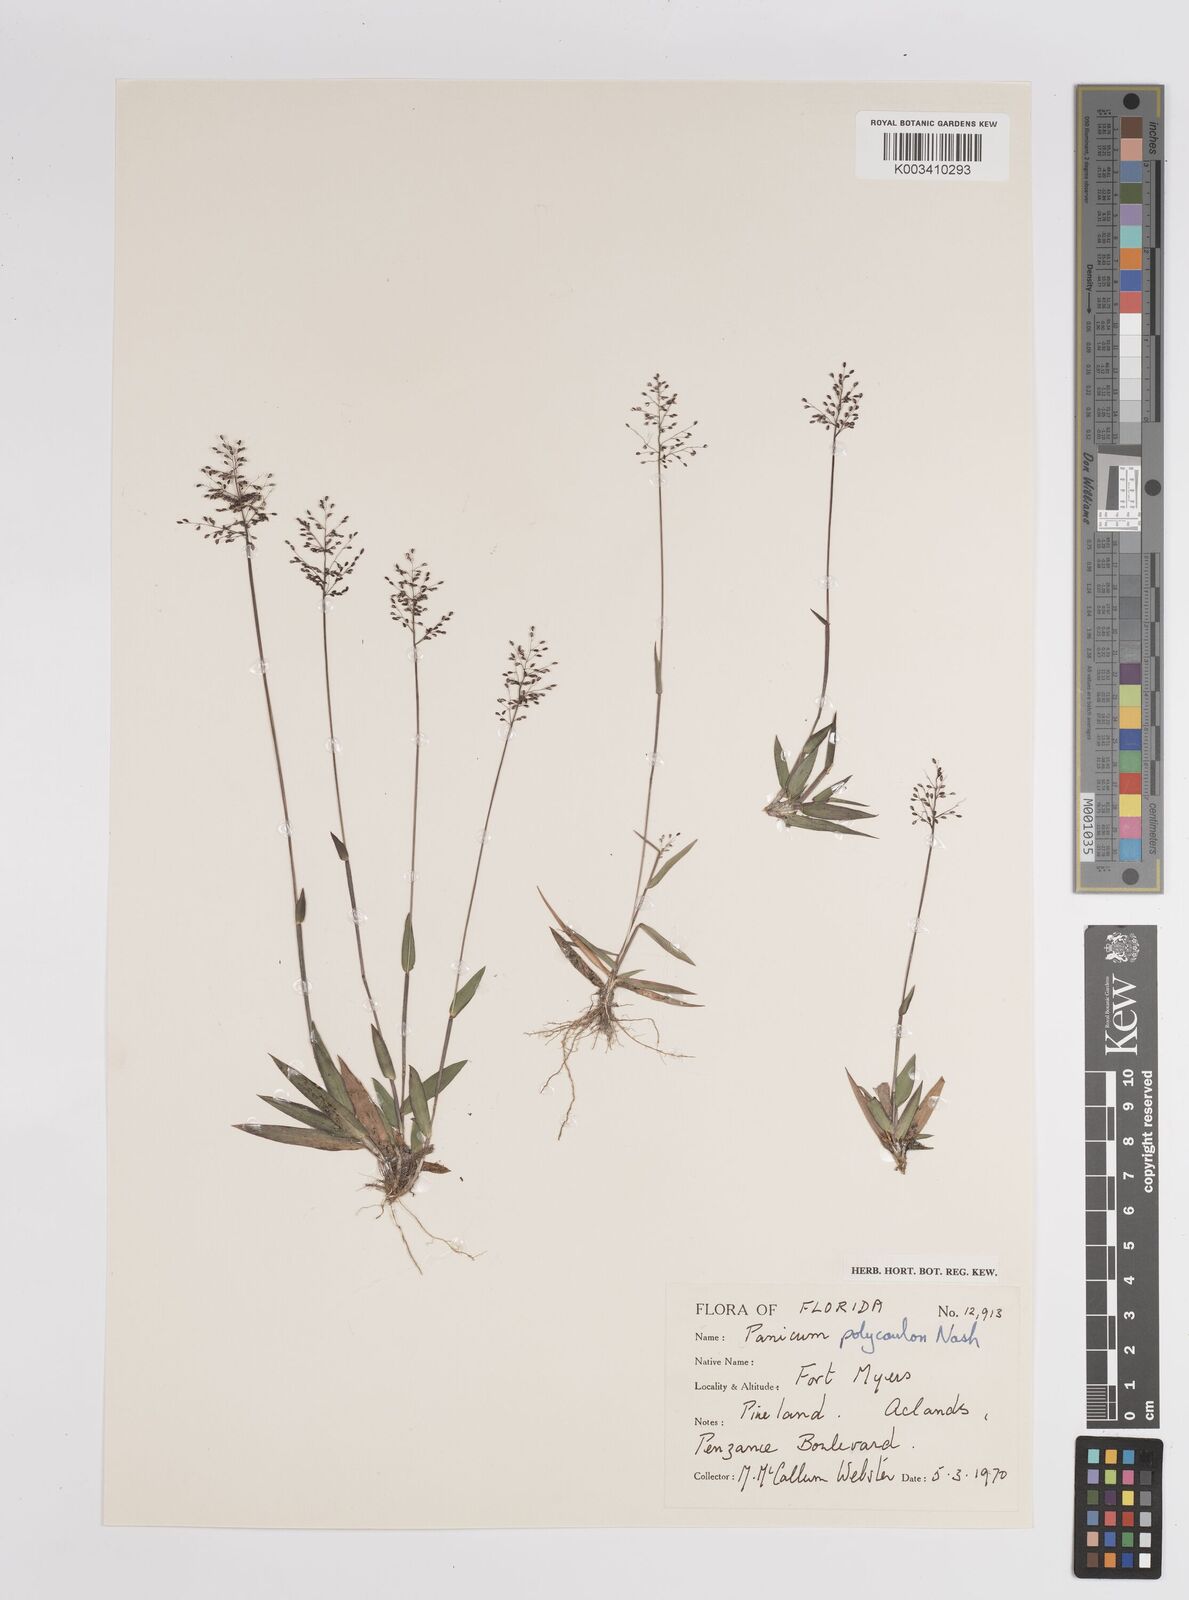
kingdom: Plantae
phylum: Tracheophyta
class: Liliopsida
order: Poales
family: Poaceae
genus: Dichanthelium
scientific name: Dichanthelium strigosum
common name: Cushion-tuft panic grass
